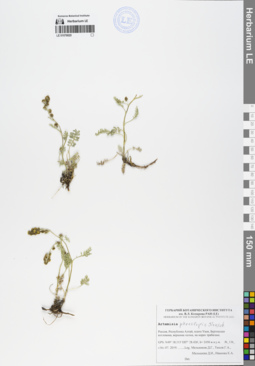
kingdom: Plantae
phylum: Tracheophyta
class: Magnoliopsida
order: Asterales
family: Asteraceae
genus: Artemisia
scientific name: Artemisia phaeolepis
